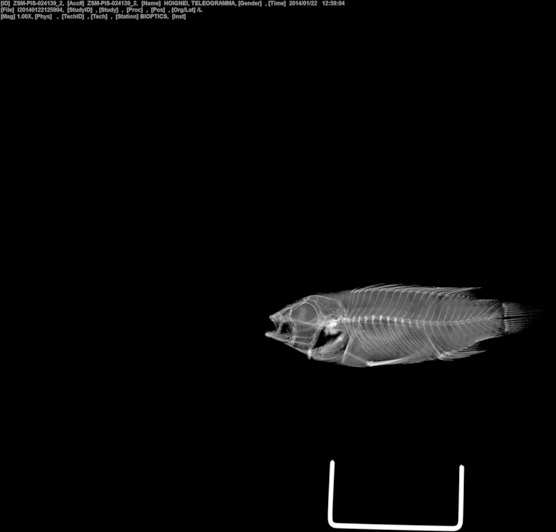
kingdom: Animalia
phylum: Chordata
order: Perciformes
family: Cichlidae
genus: Apistogramma
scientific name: Apistogramma hoignei
